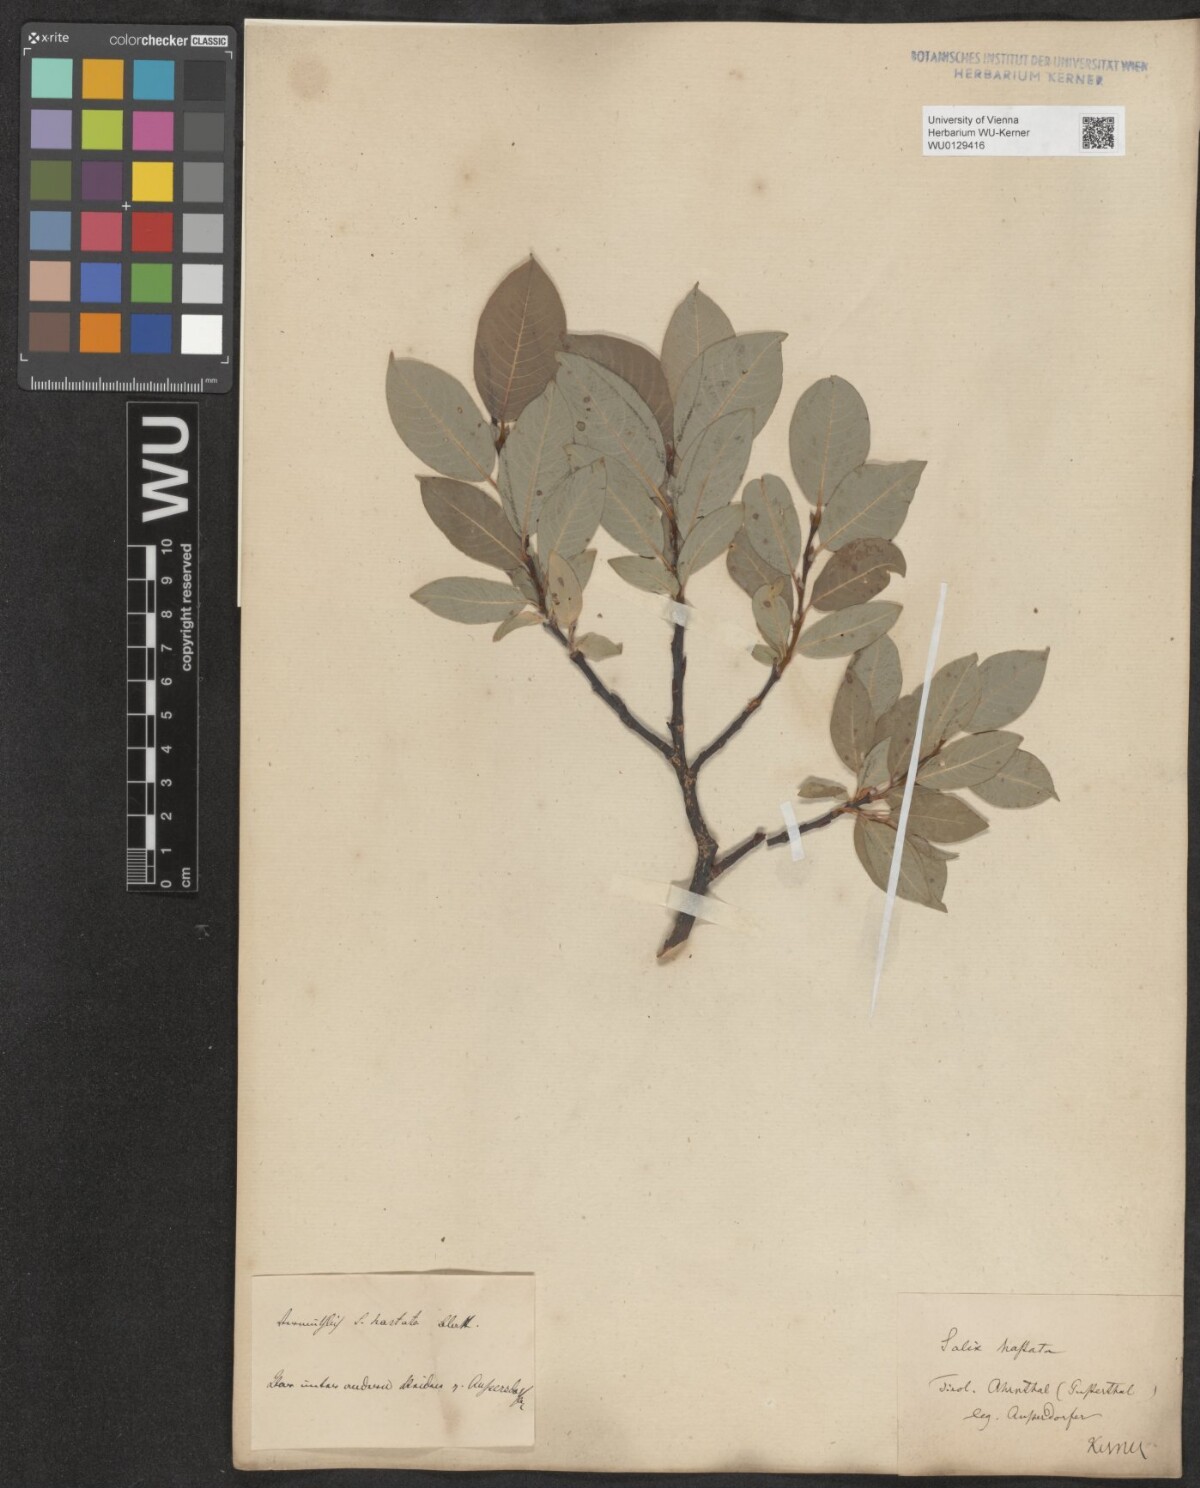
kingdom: Plantae
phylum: Tracheophyta
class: Magnoliopsida
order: Malpighiales
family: Salicaceae
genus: Salix
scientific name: Salix hastata
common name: Halberd willow
